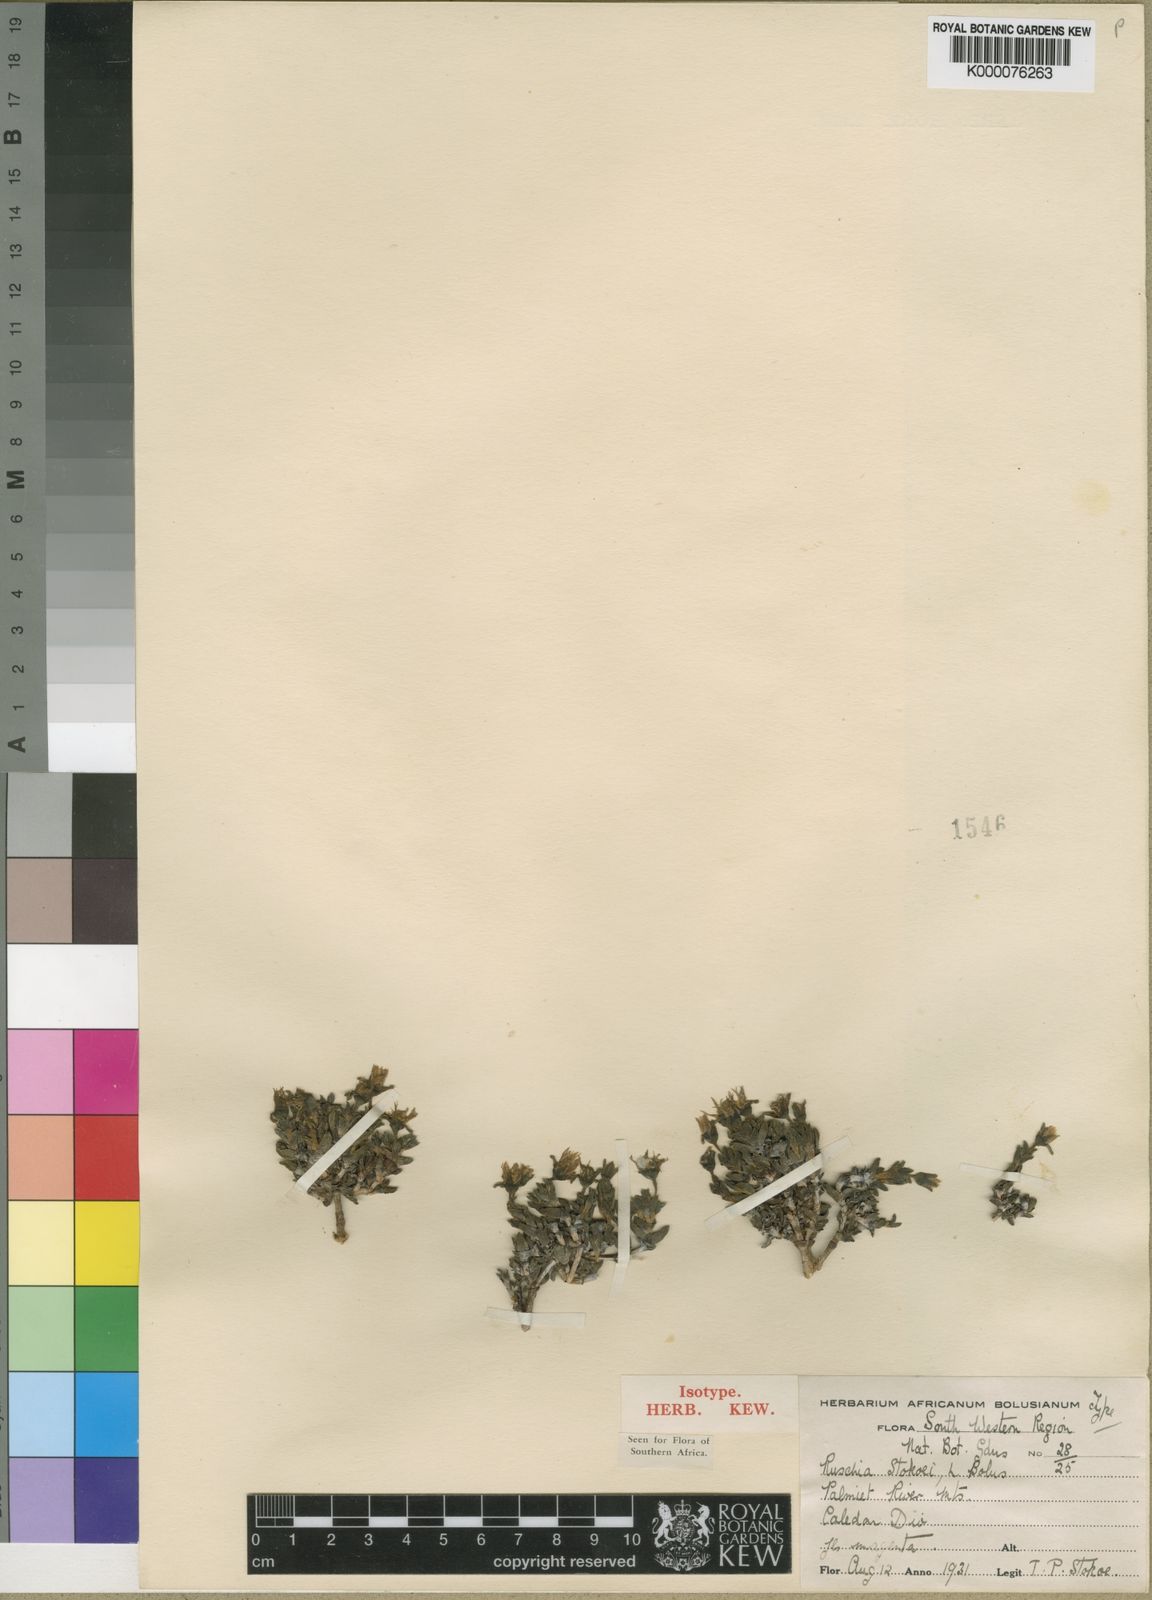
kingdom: Plantae
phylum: Tracheophyta
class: Magnoliopsida
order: Caryophyllales
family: Aizoaceae
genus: Antimima
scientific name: Antimima stokoei
